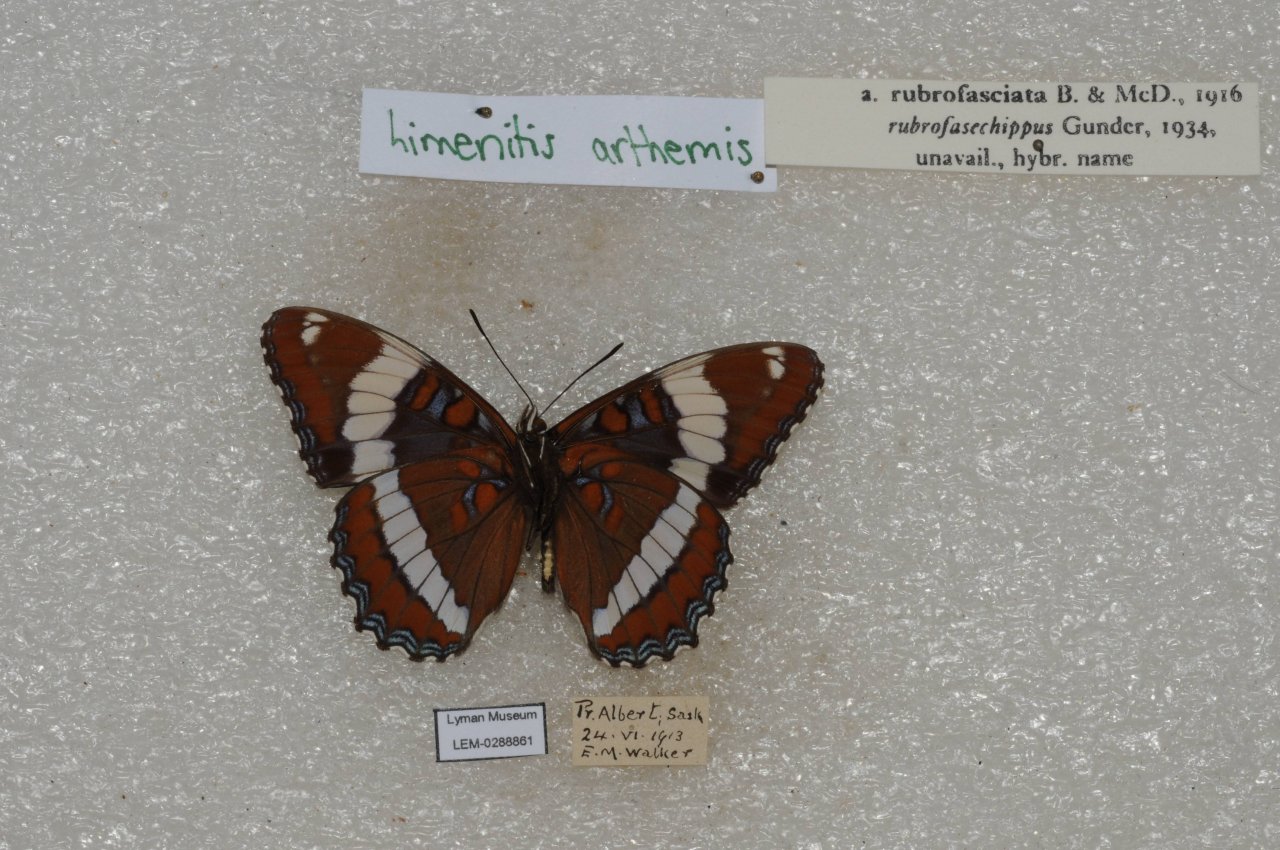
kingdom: Animalia
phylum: Arthropoda
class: Insecta
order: Lepidoptera
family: Nymphalidae
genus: Limenitis
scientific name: Limenitis arthemis
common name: Red-spotted Admiral
